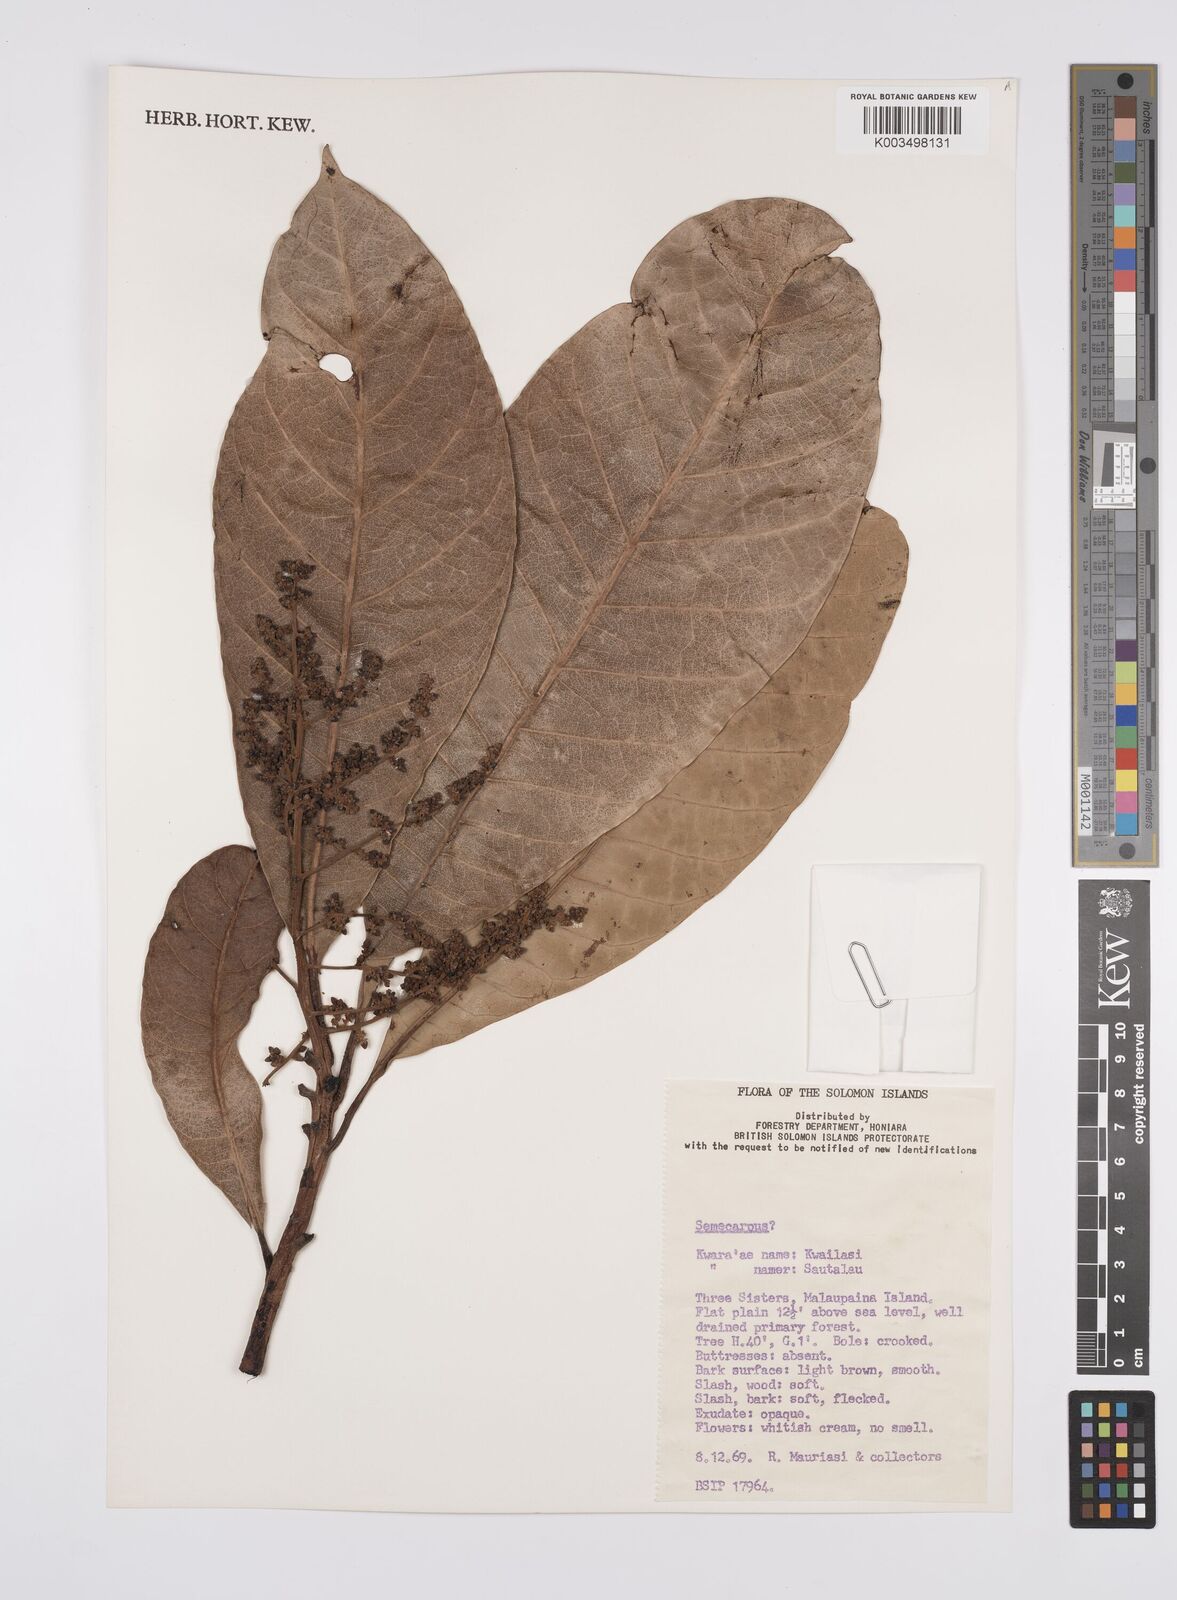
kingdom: Plantae
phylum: Tracheophyta
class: Magnoliopsida
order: Sapindales
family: Anacardiaceae
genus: Semecarpus
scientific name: Semecarpus
